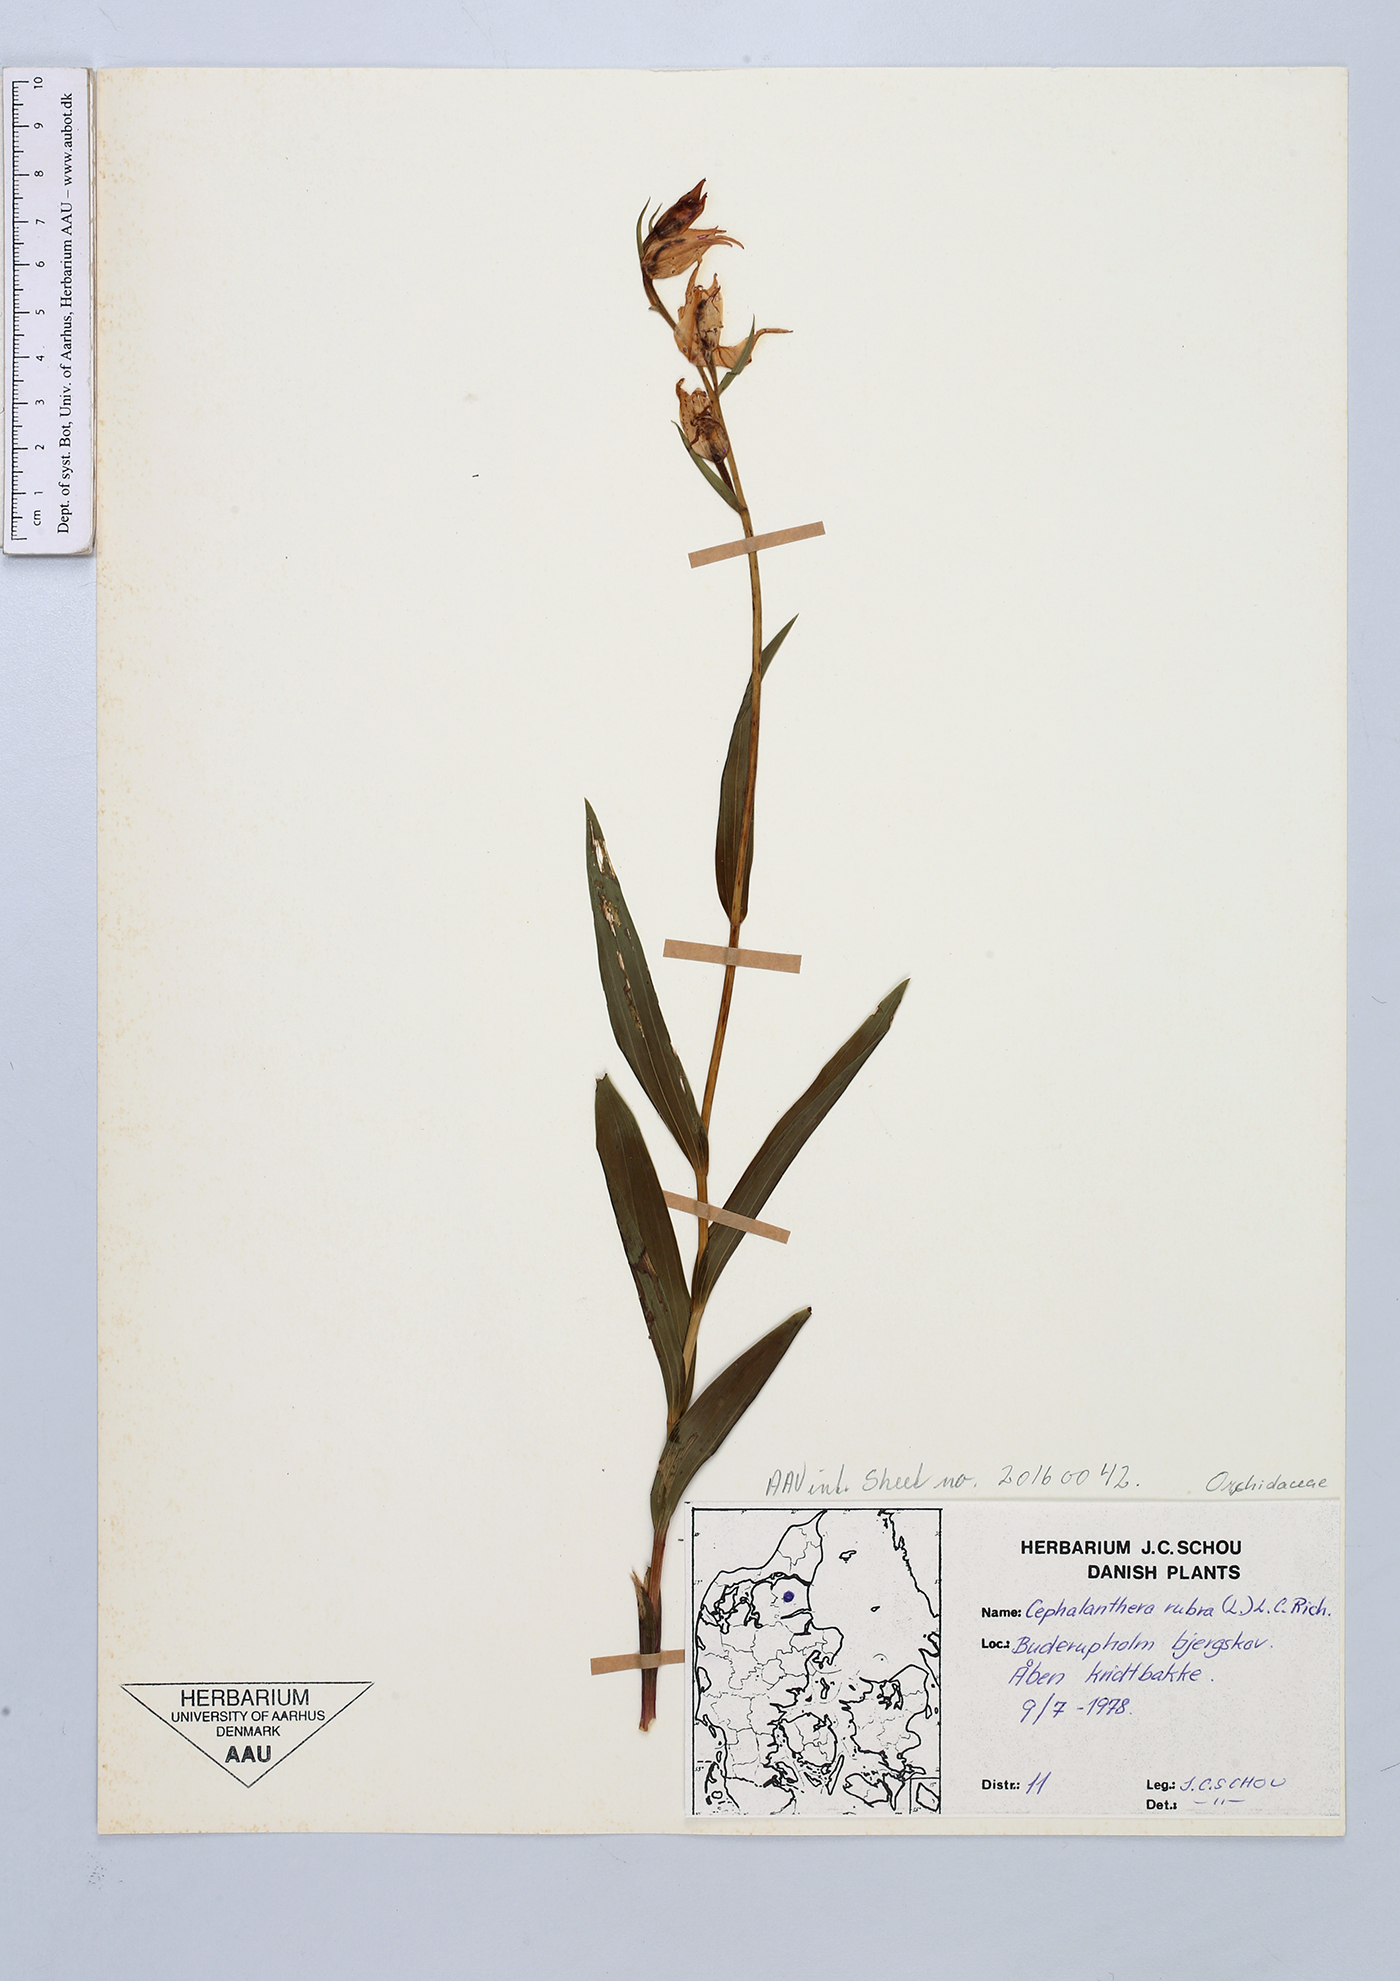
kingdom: Plantae
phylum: Tracheophyta
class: Liliopsida
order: Asparagales
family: Orchidaceae
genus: Cephalanthera
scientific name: Cephalanthera rubra
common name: Red helleborine
